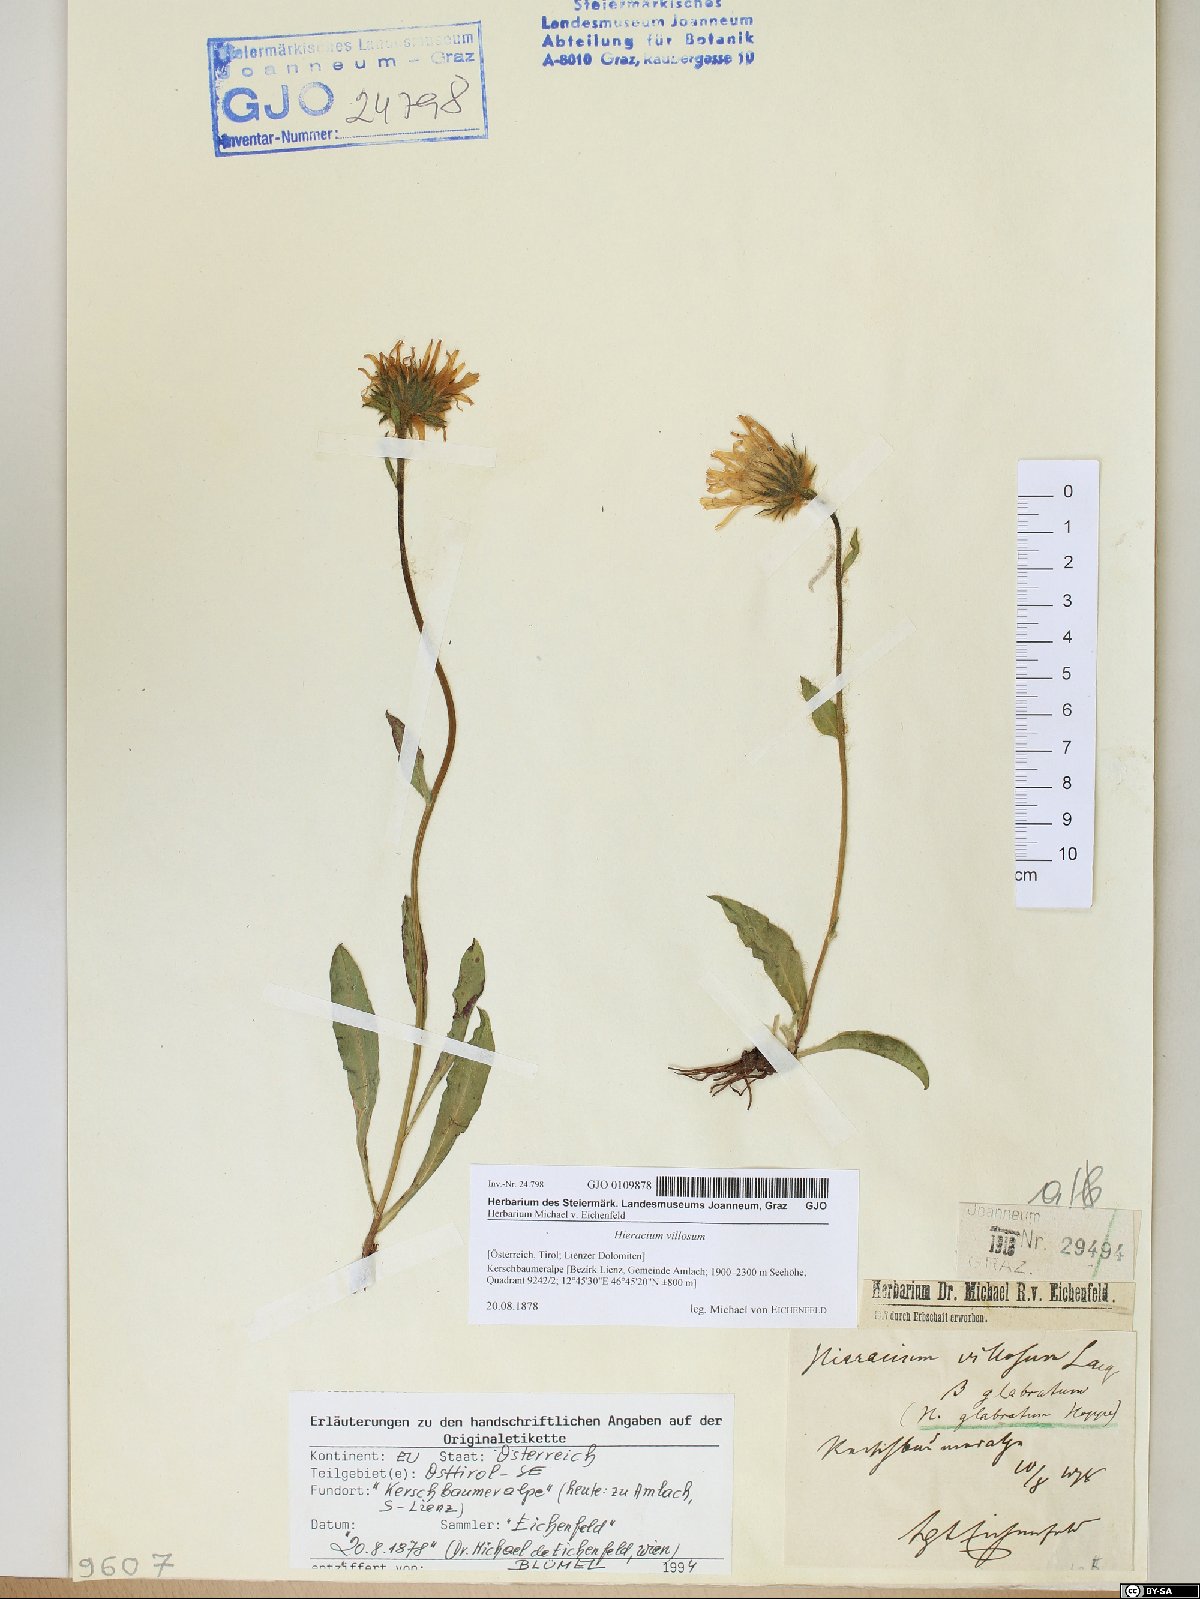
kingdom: Plantae
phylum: Tracheophyta
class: Magnoliopsida
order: Asterales
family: Asteraceae
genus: Hieracium
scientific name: Hieracium villosum
